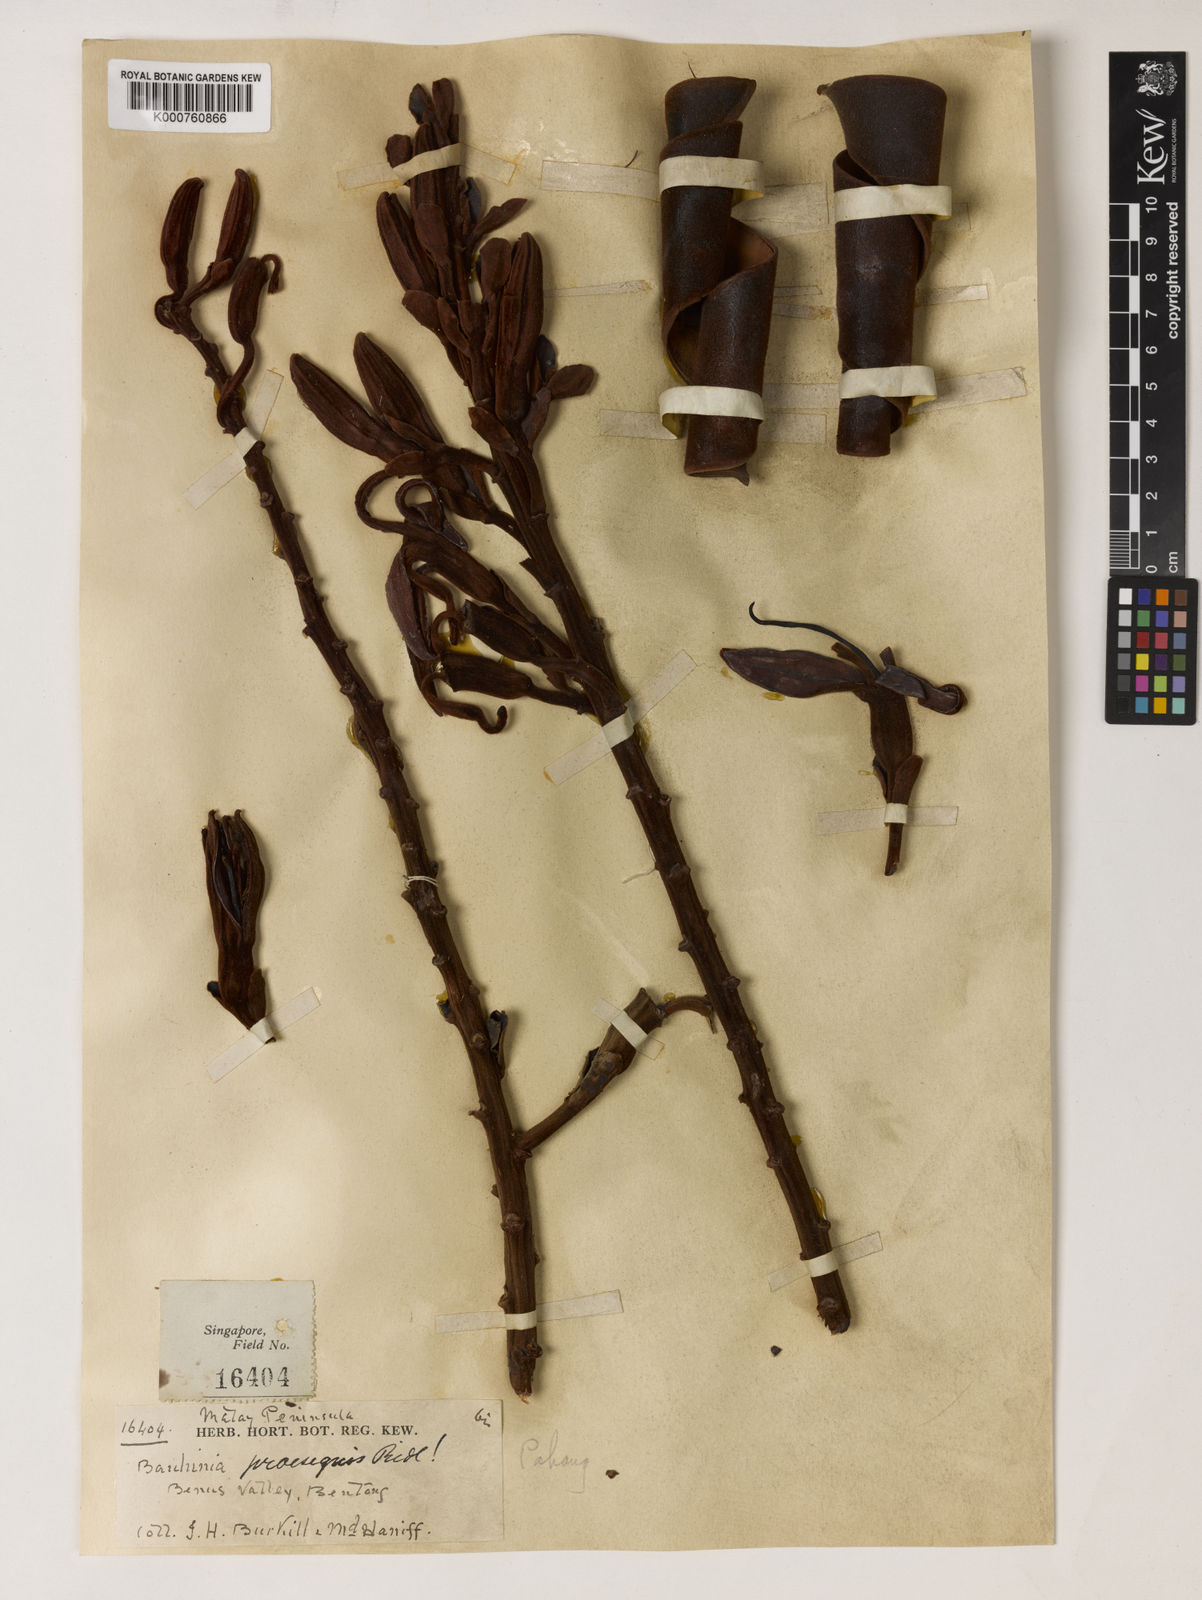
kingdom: Plantae
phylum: Tracheophyta
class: Magnoliopsida
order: Fabales
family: Fabaceae
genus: Phanera
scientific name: Phanera praesignis
